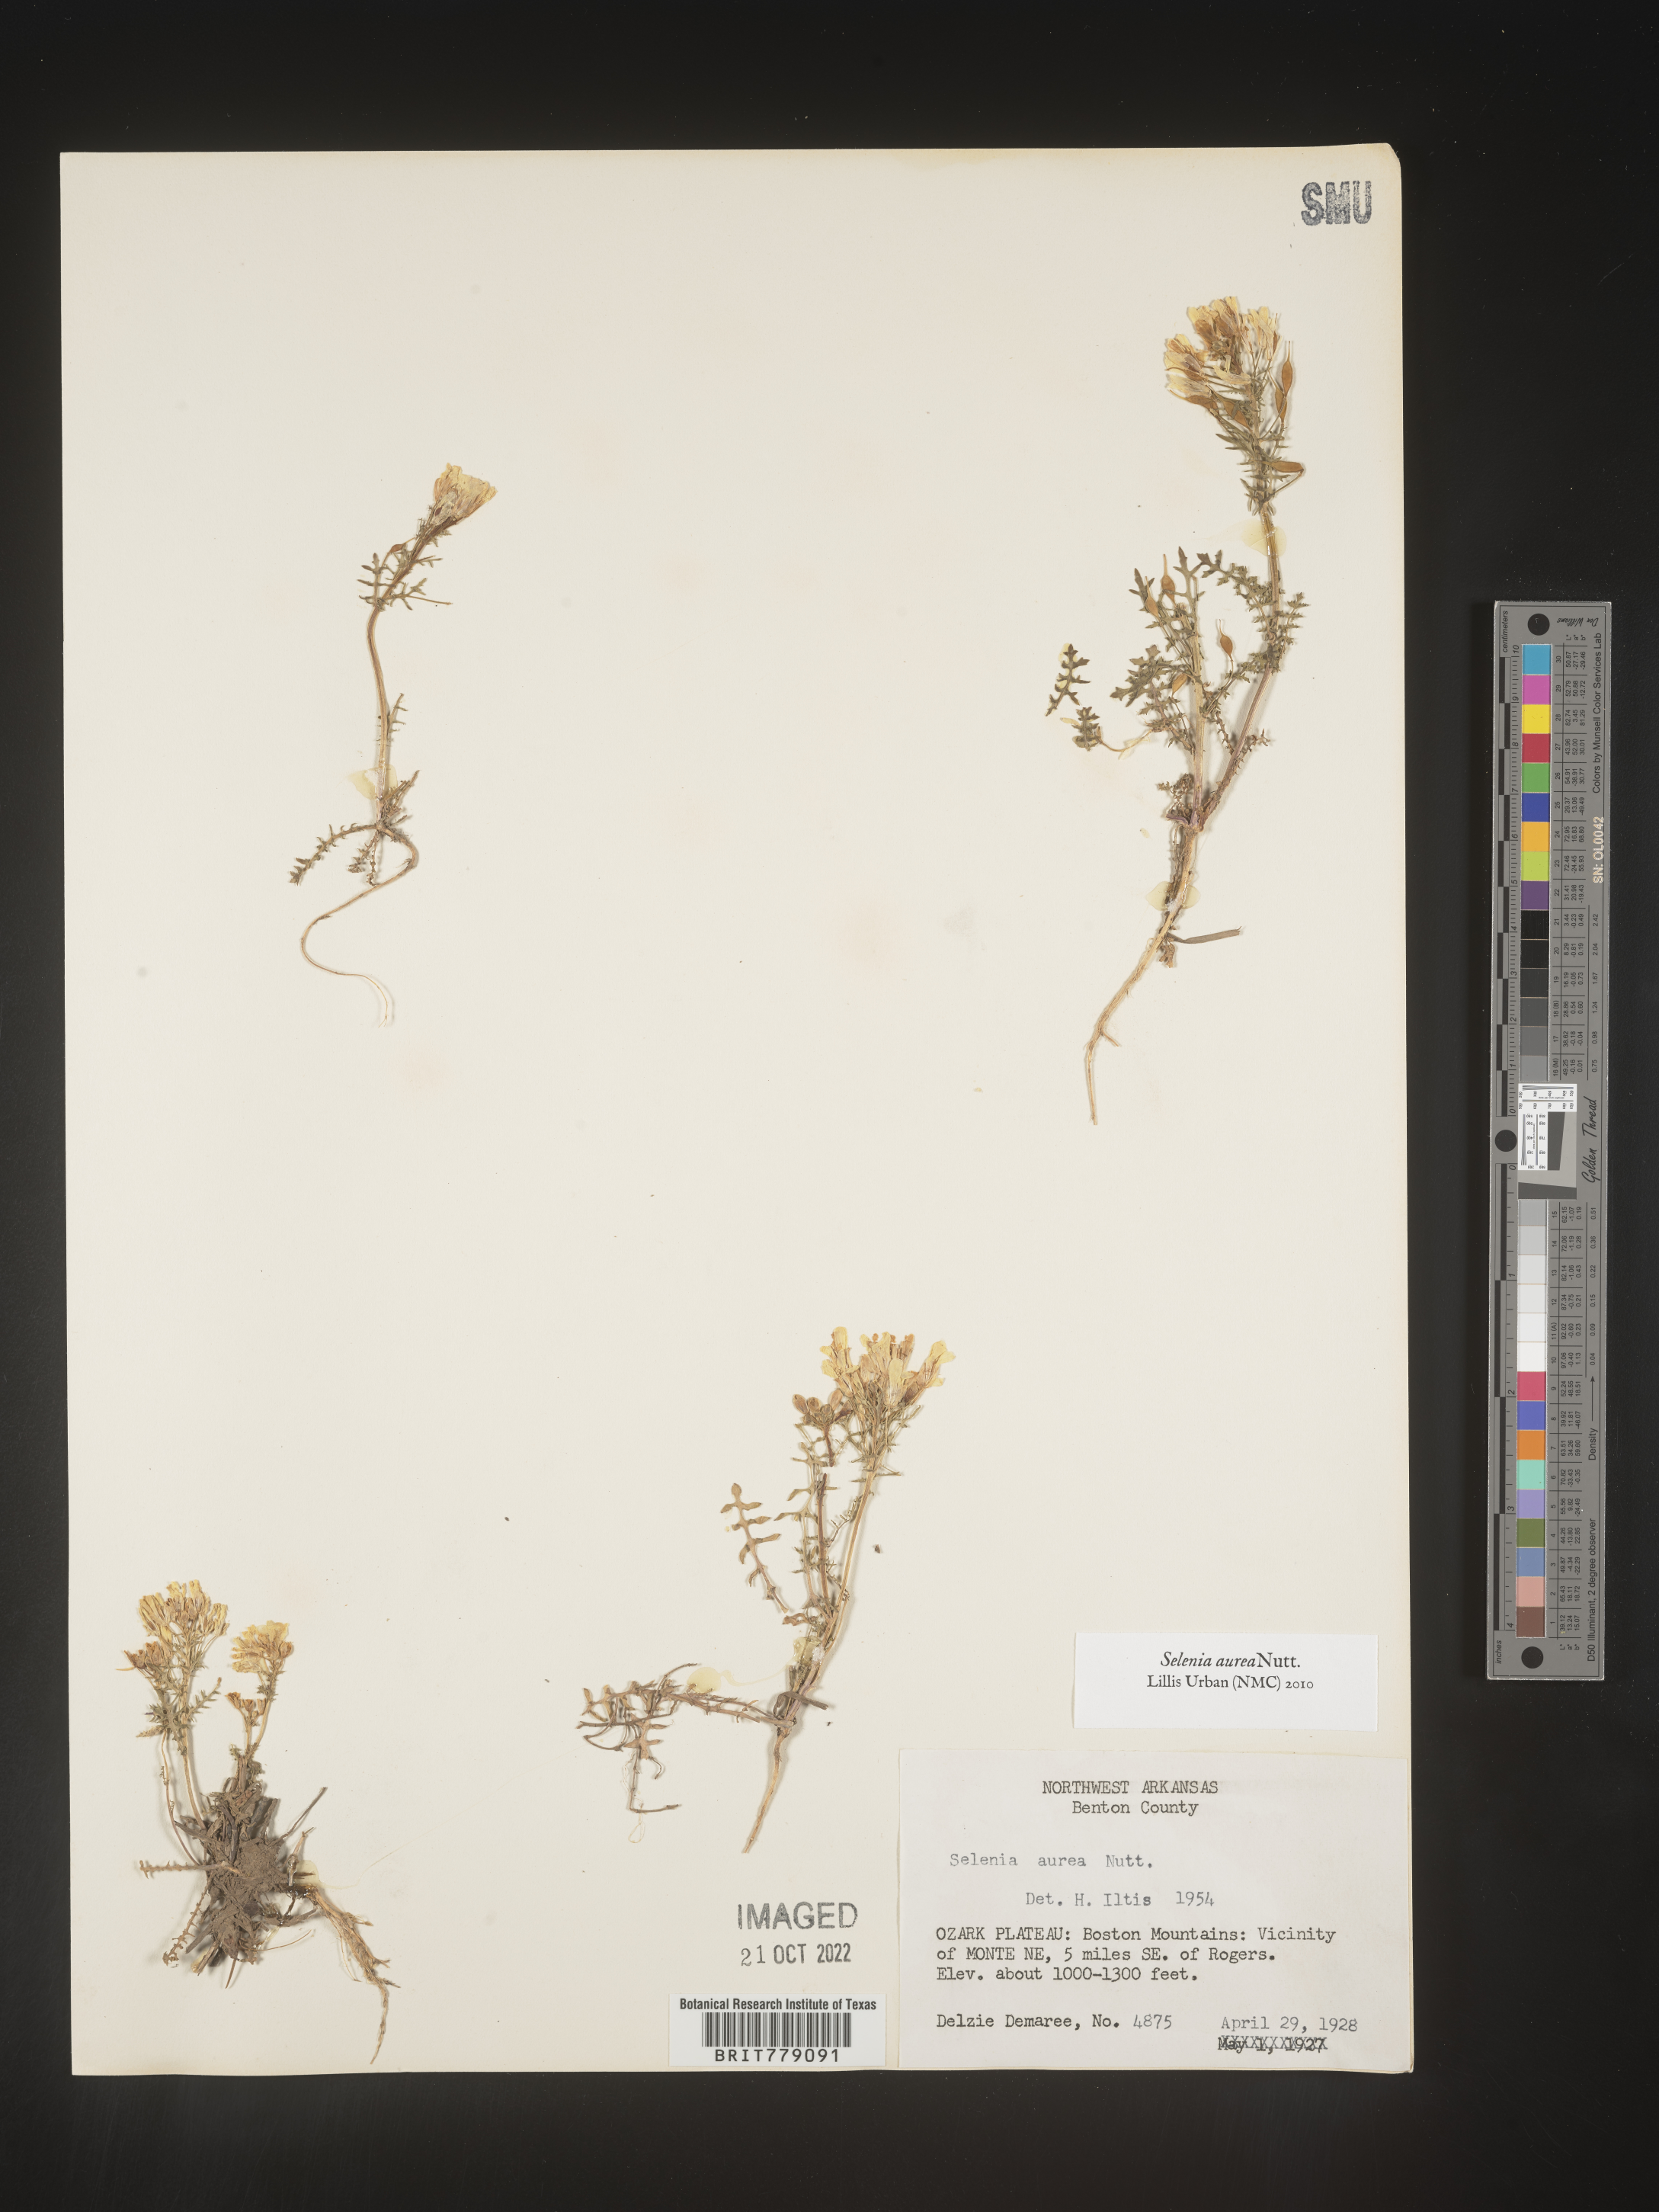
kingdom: Plantae
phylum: Tracheophyta
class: Magnoliopsida
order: Brassicales
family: Brassicaceae
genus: Selenia
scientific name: Selenia
